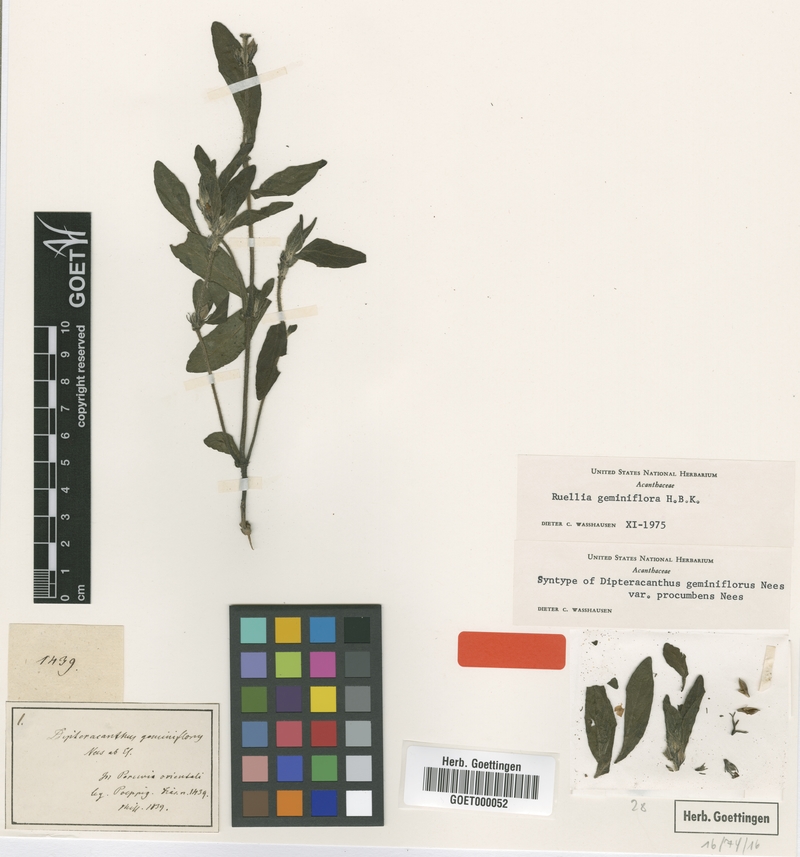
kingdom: Plantae
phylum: Tracheophyta
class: Magnoliopsida
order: Lamiales
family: Acanthaceae
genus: Ruellia
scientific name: Ruellia geminiflora
